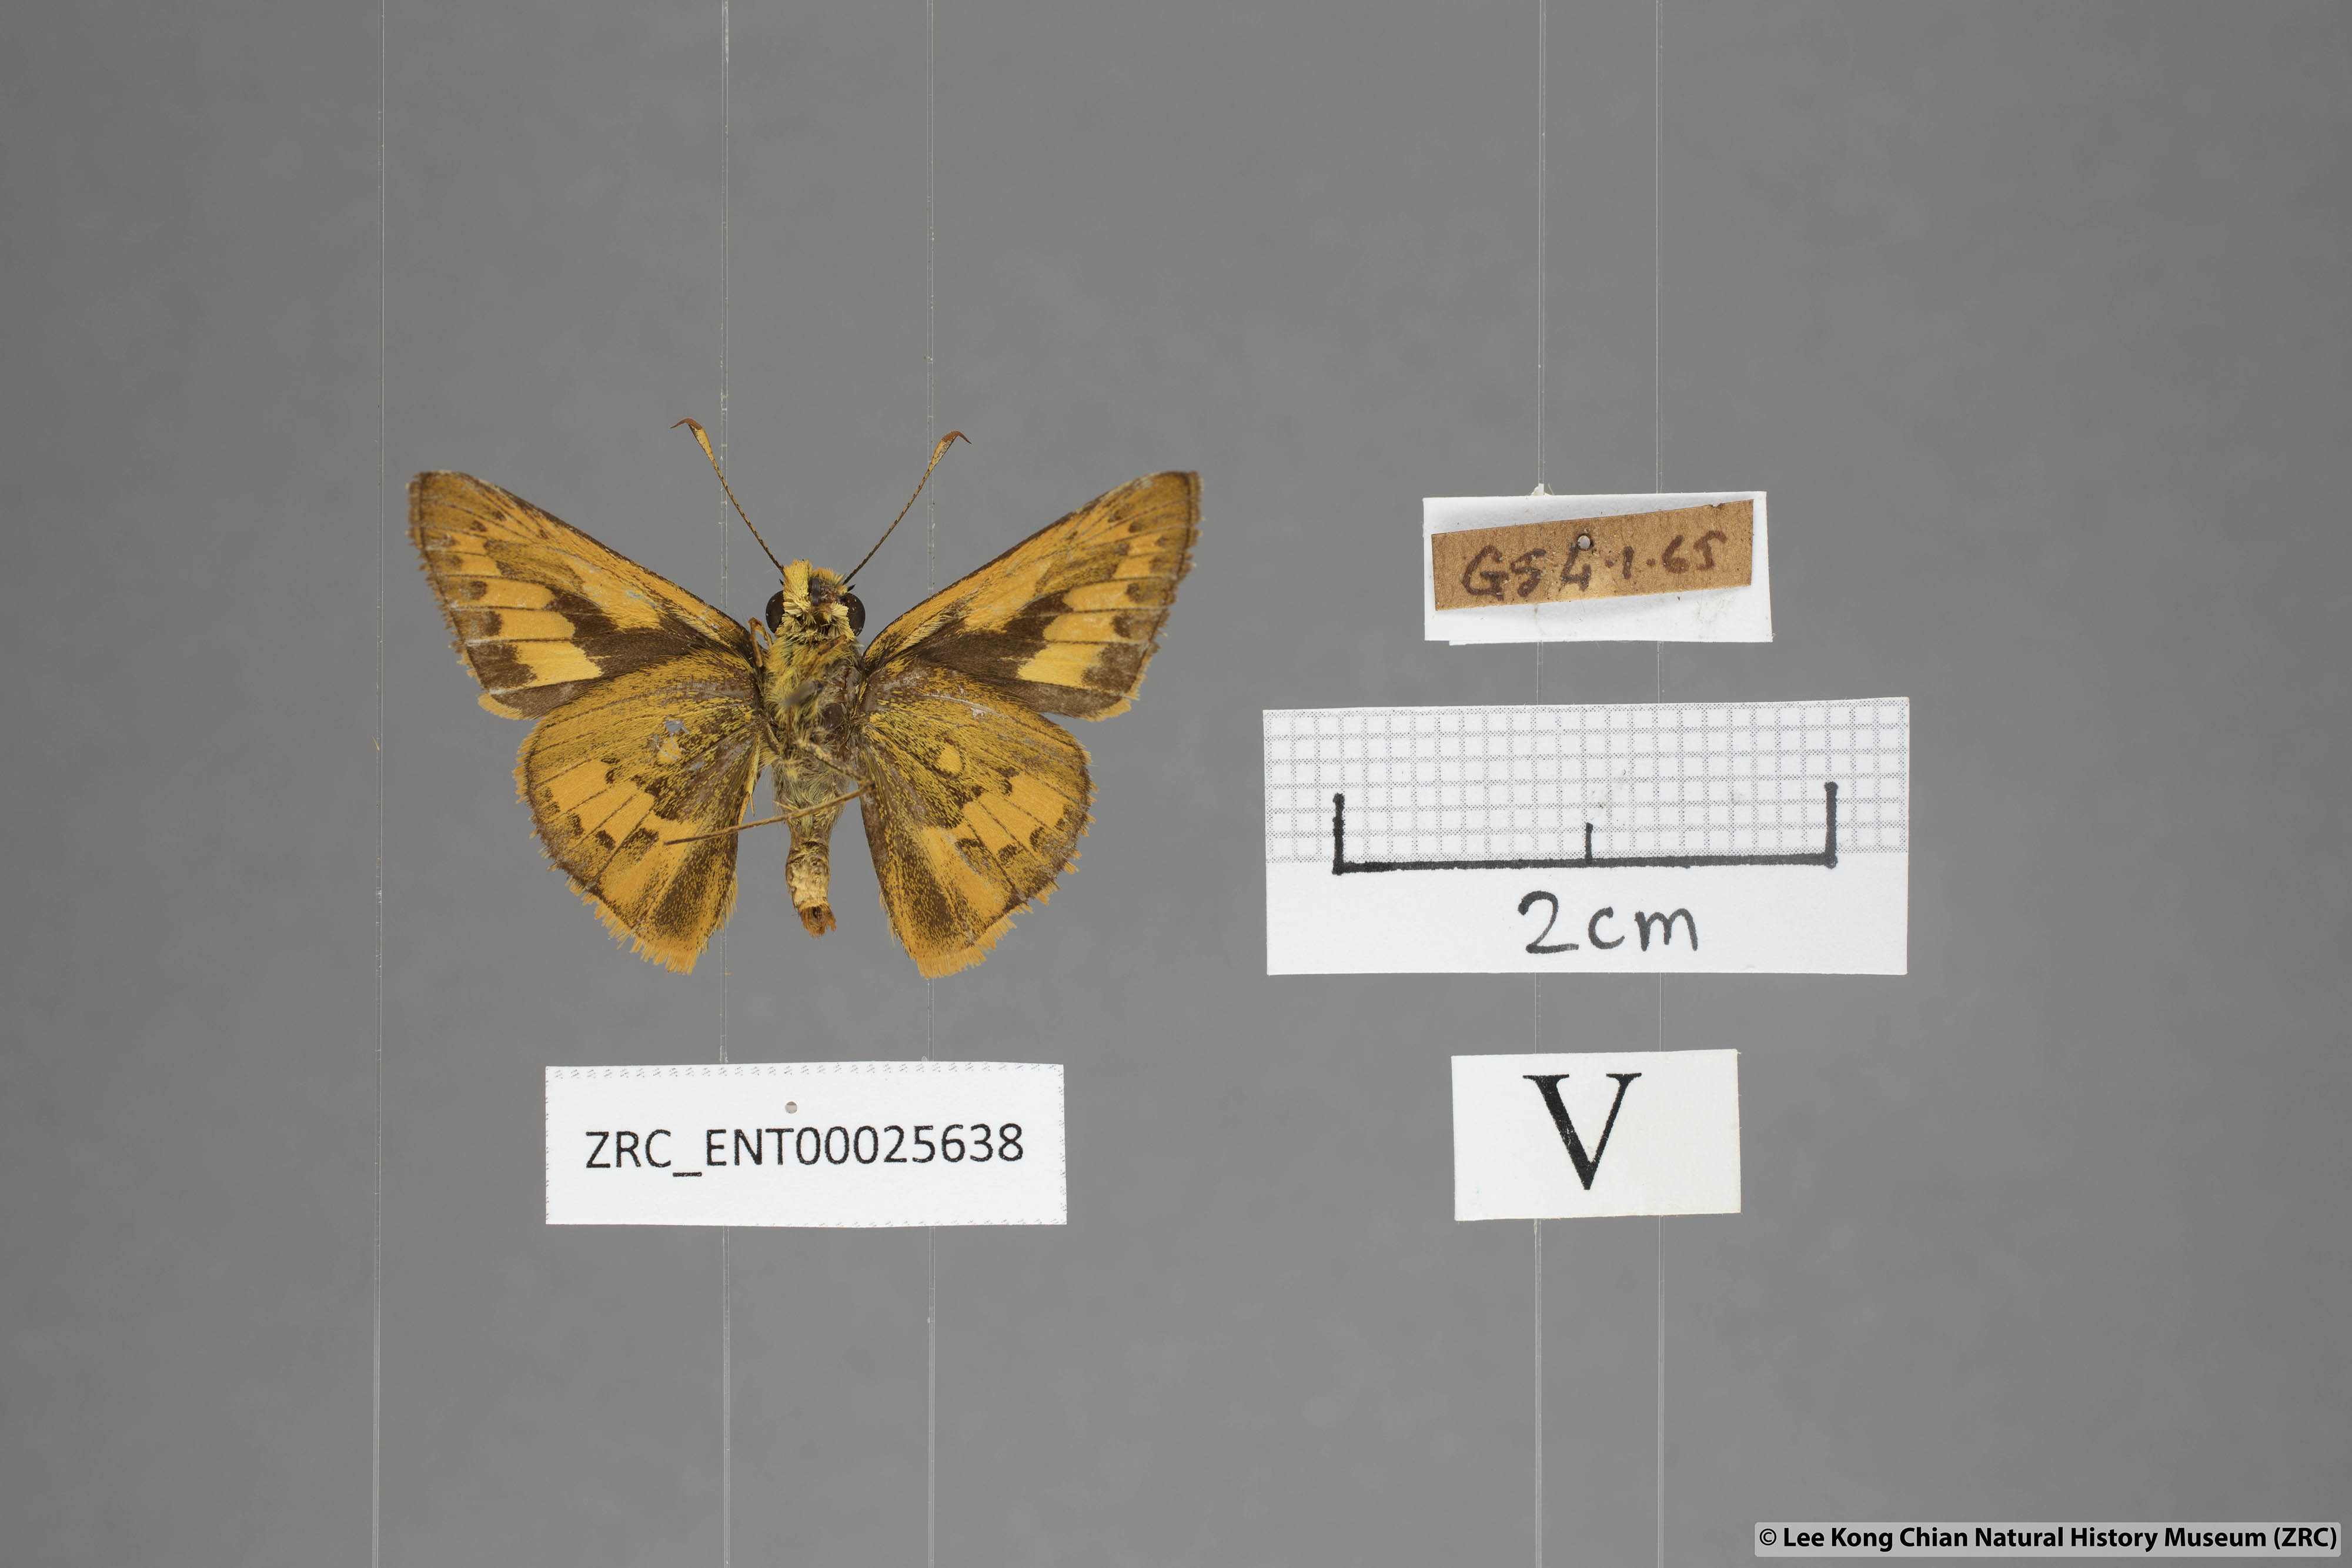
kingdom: Animalia
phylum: Arthropoda
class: Insecta
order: Lepidoptera
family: Hesperiidae
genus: Telicota
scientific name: Telicota besta
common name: Hainan palm dart
